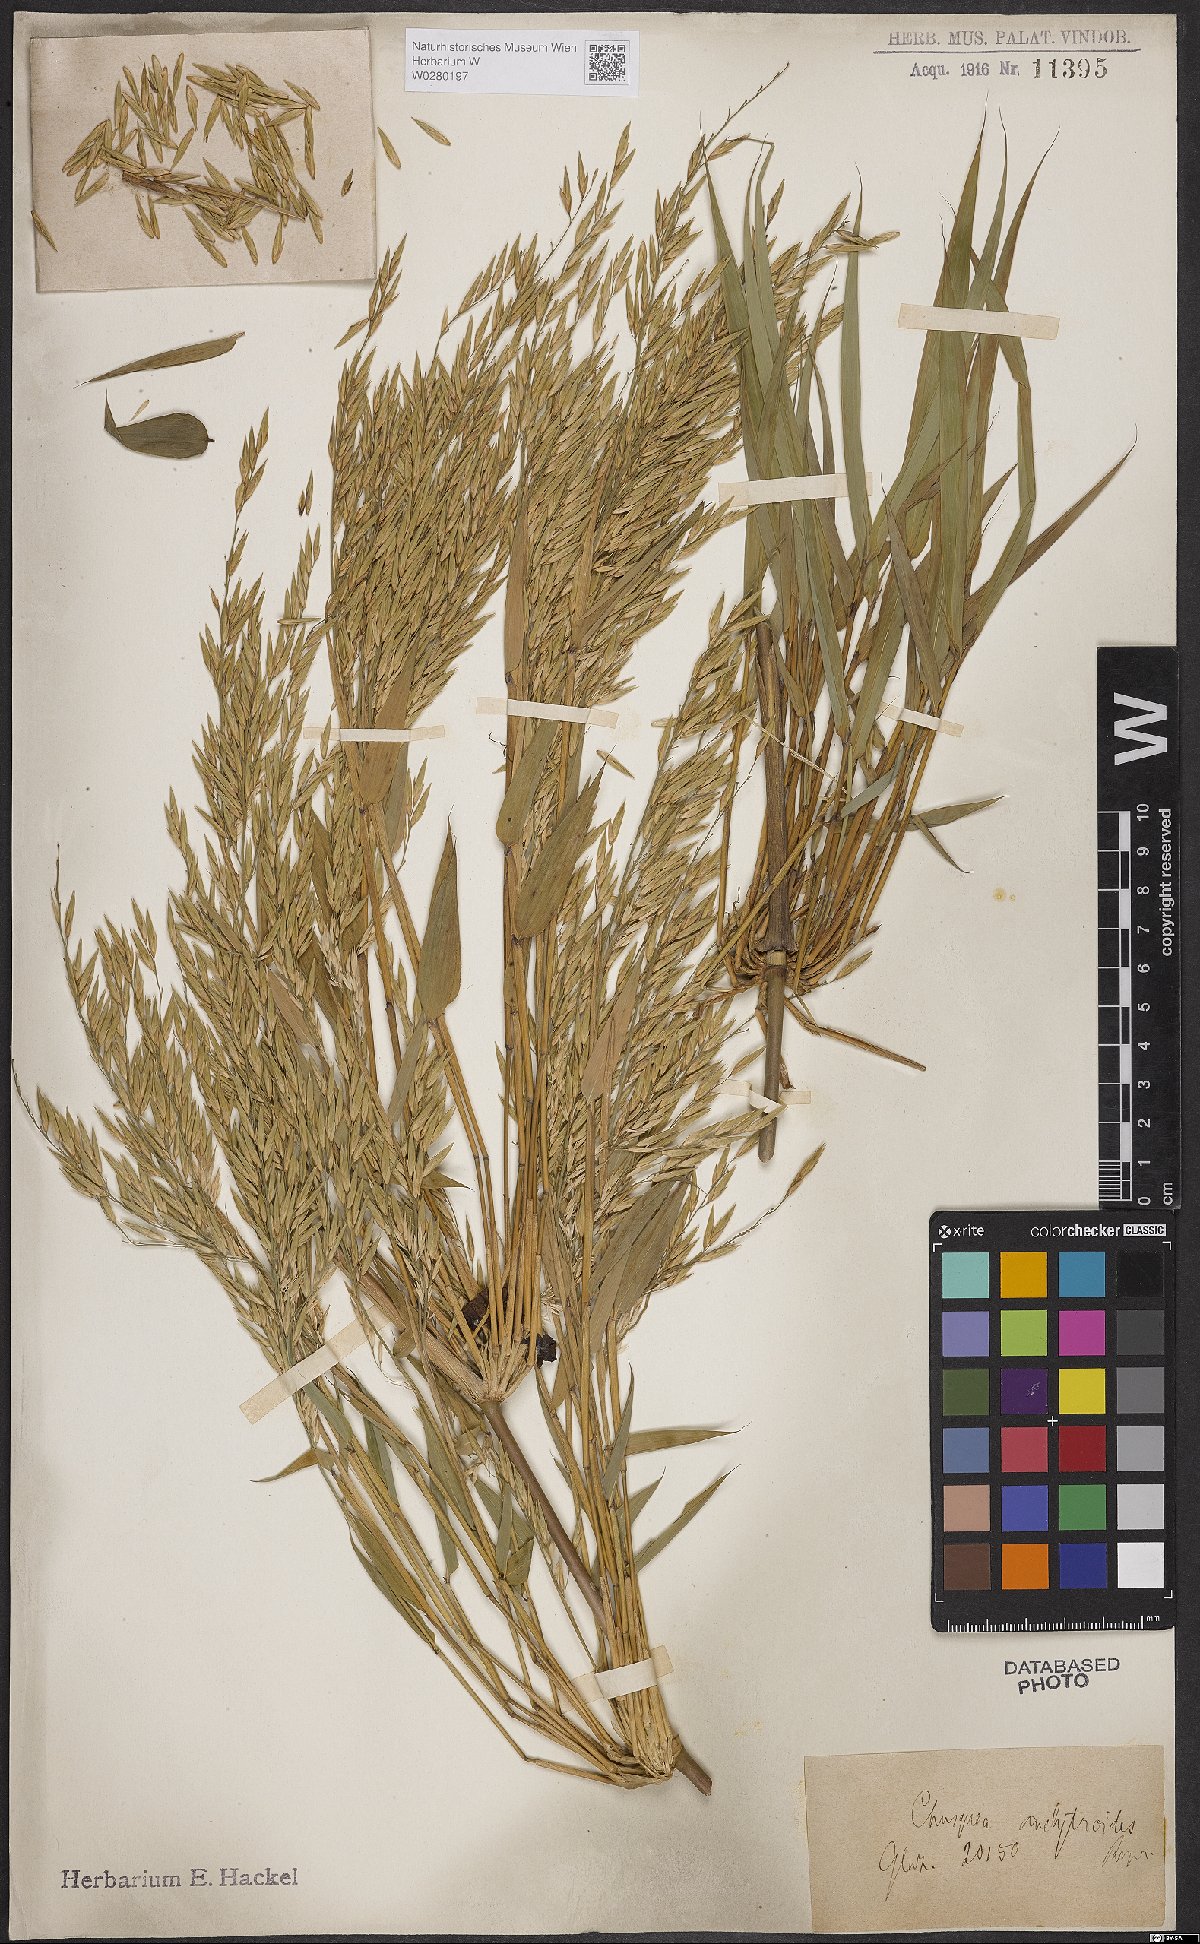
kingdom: Plantae
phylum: Tracheophyta
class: Liliopsida
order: Poales
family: Poaceae
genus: Chusquea
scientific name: Chusquea anelythroides
